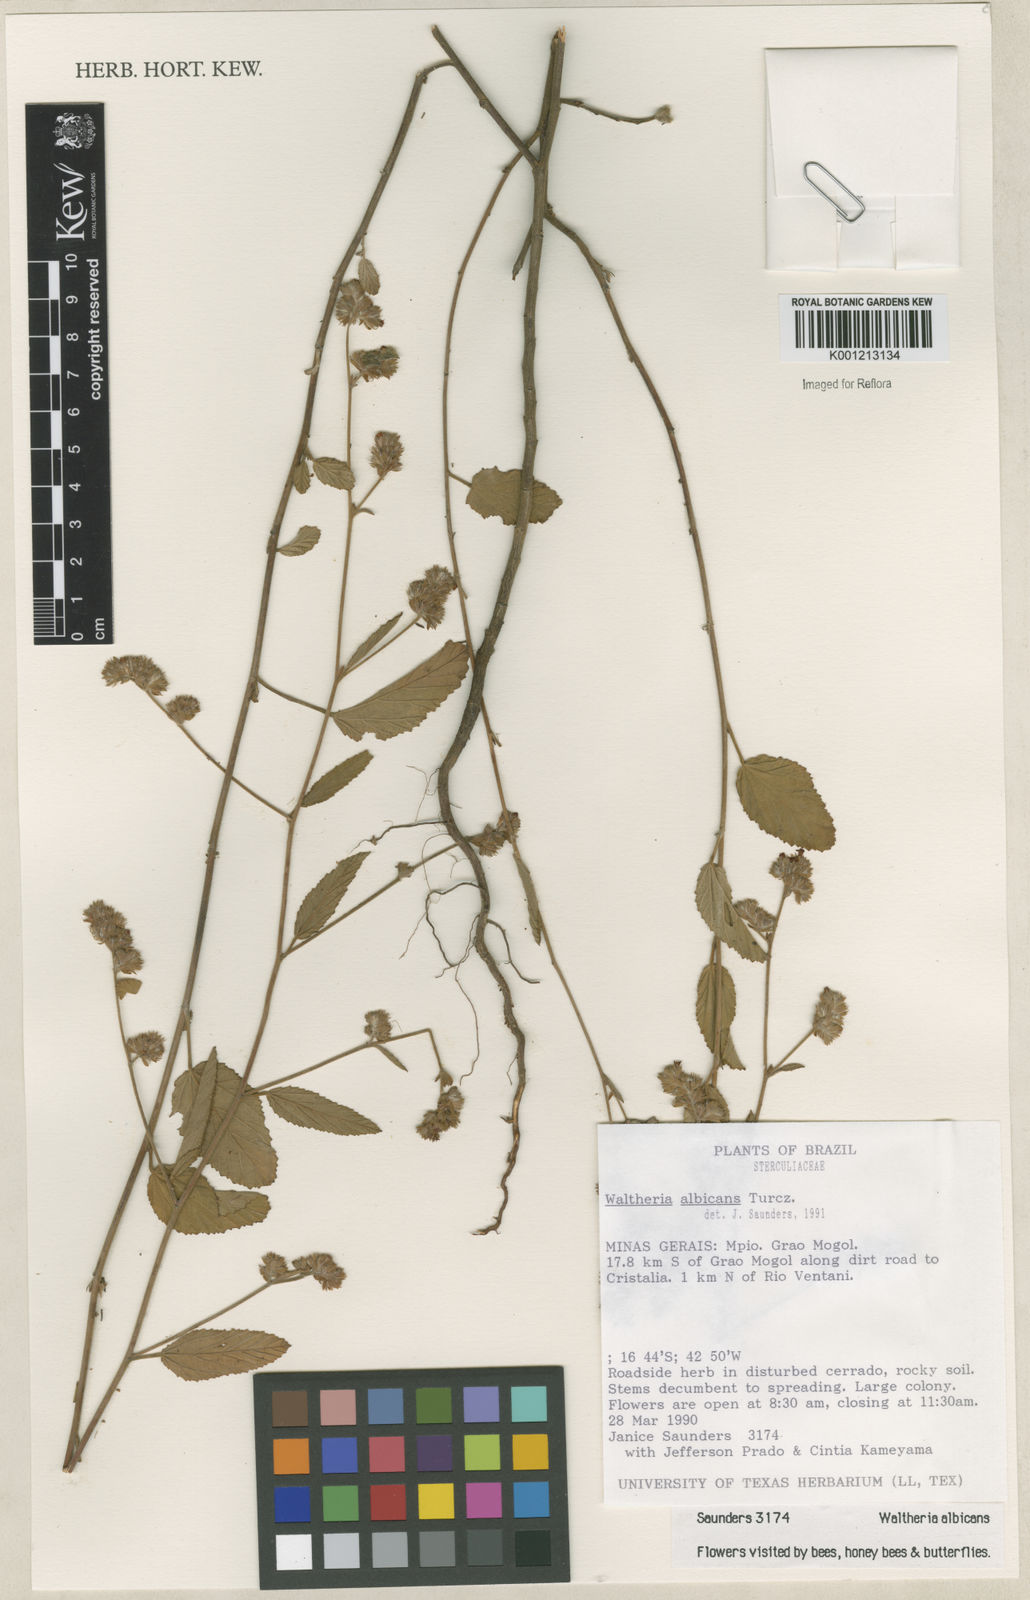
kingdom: Plantae
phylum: Tracheophyta
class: Magnoliopsida
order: Malvales
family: Malvaceae
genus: Waltheria
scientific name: Waltheria albicans
